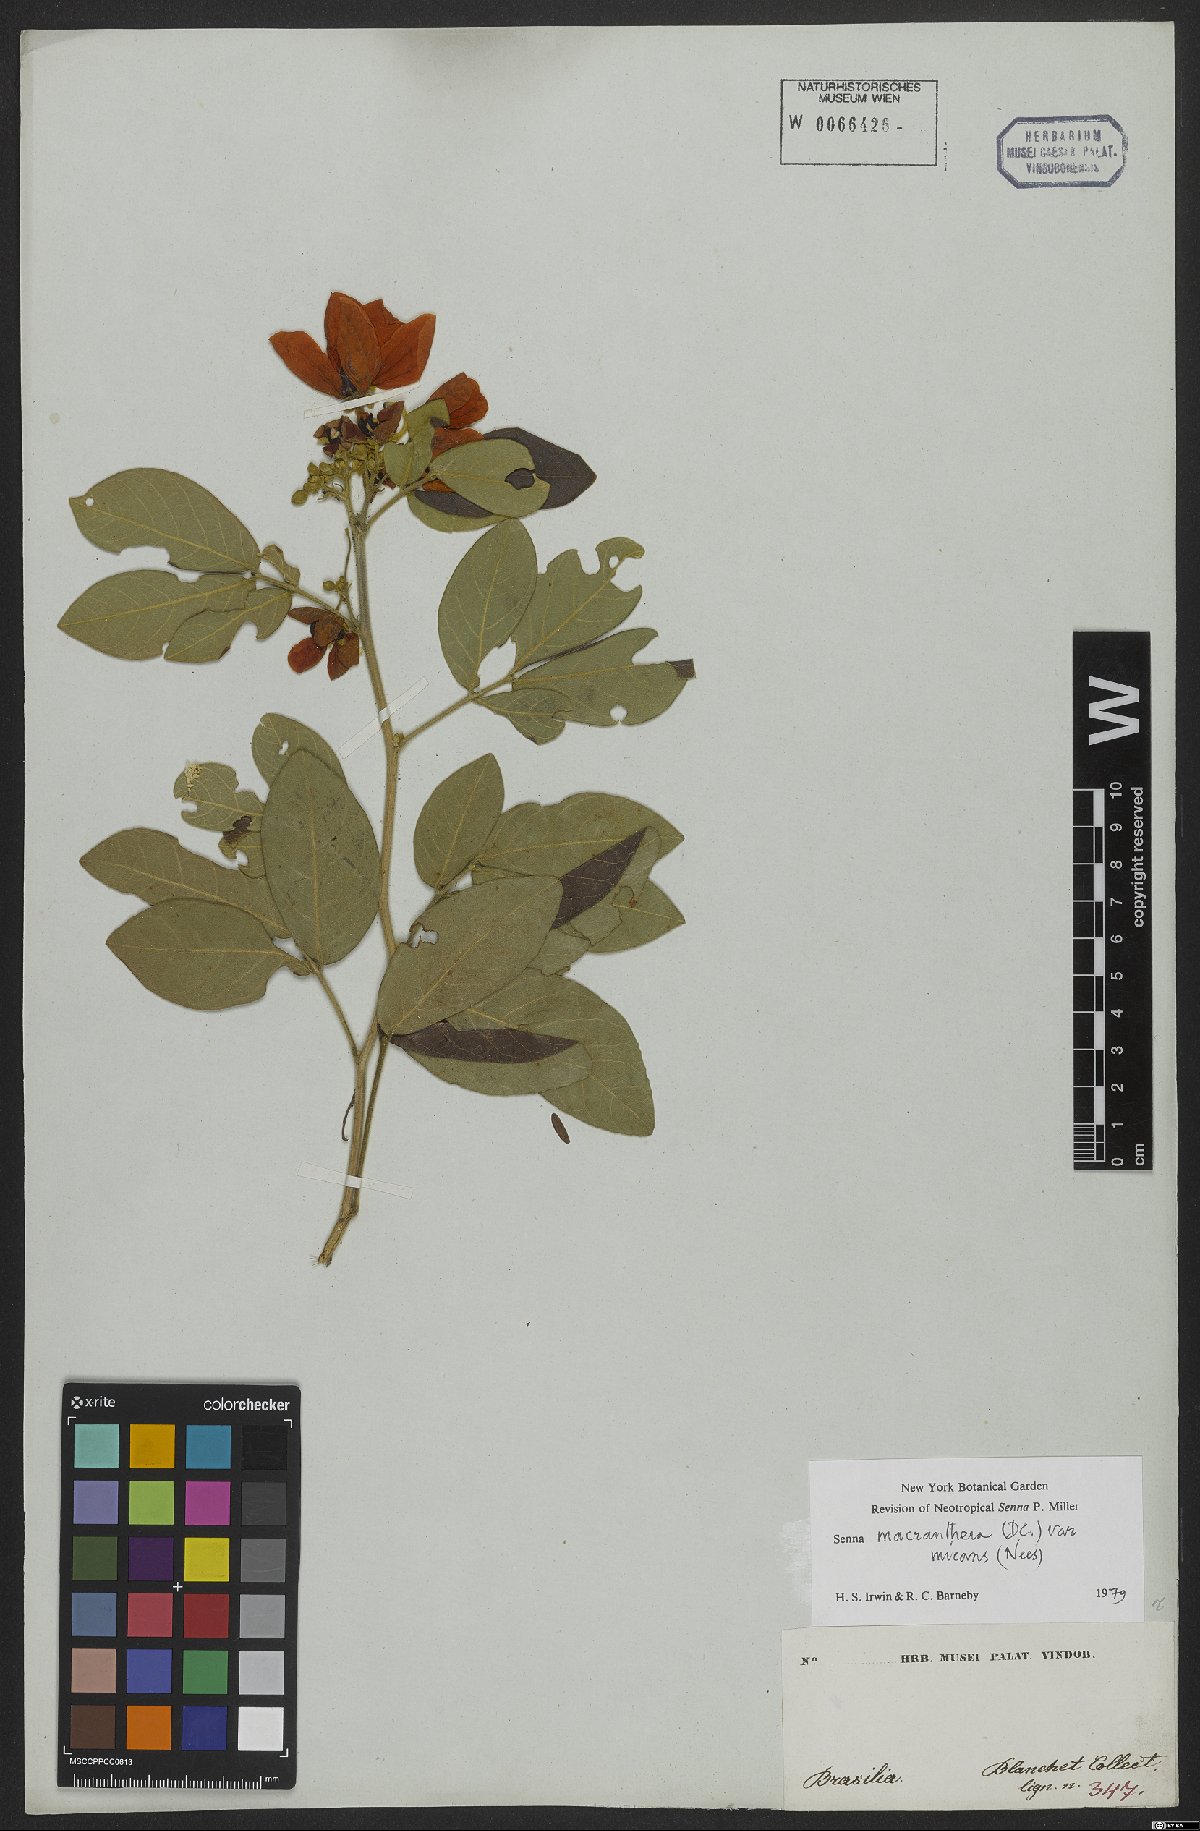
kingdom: Plantae
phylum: Tracheophyta
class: Magnoliopsida
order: Fabales
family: Fabaceae
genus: Senna
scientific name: Senna macranthera
